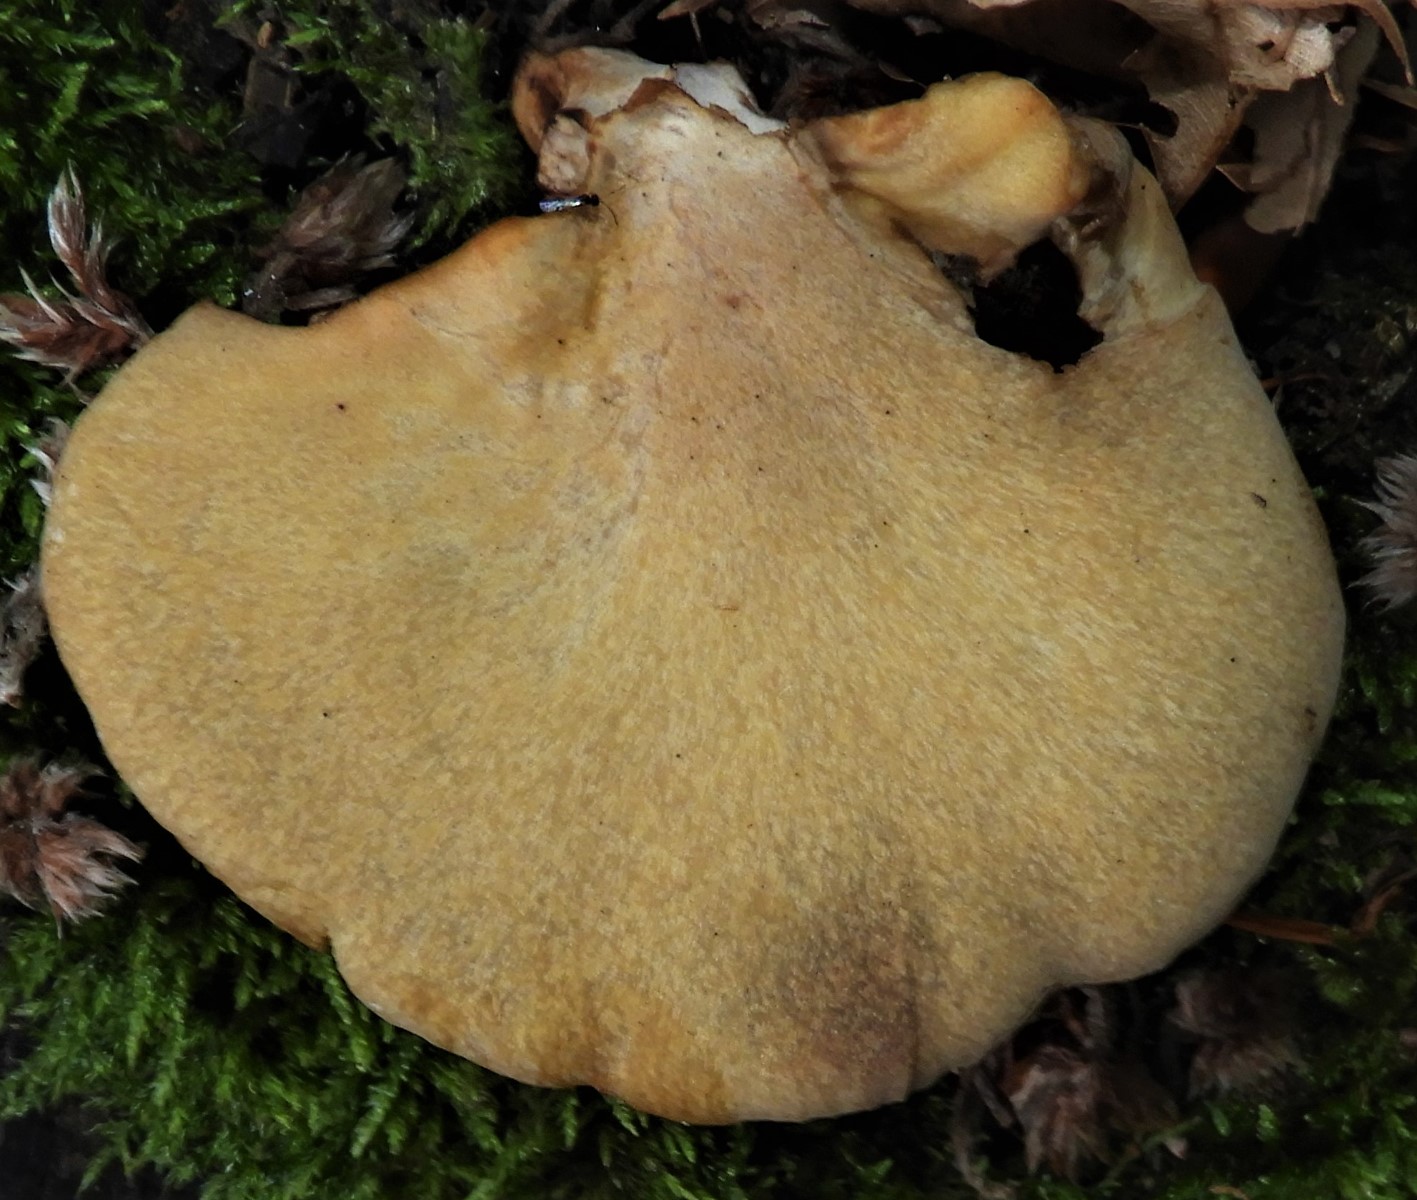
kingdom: Fungi
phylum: Basidiomycota
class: Agaricomycetes
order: Polyporales
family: Polyporaceae
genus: Cerioporus
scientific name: Cerioporus varius
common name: foranderlig stilkporesvamp
